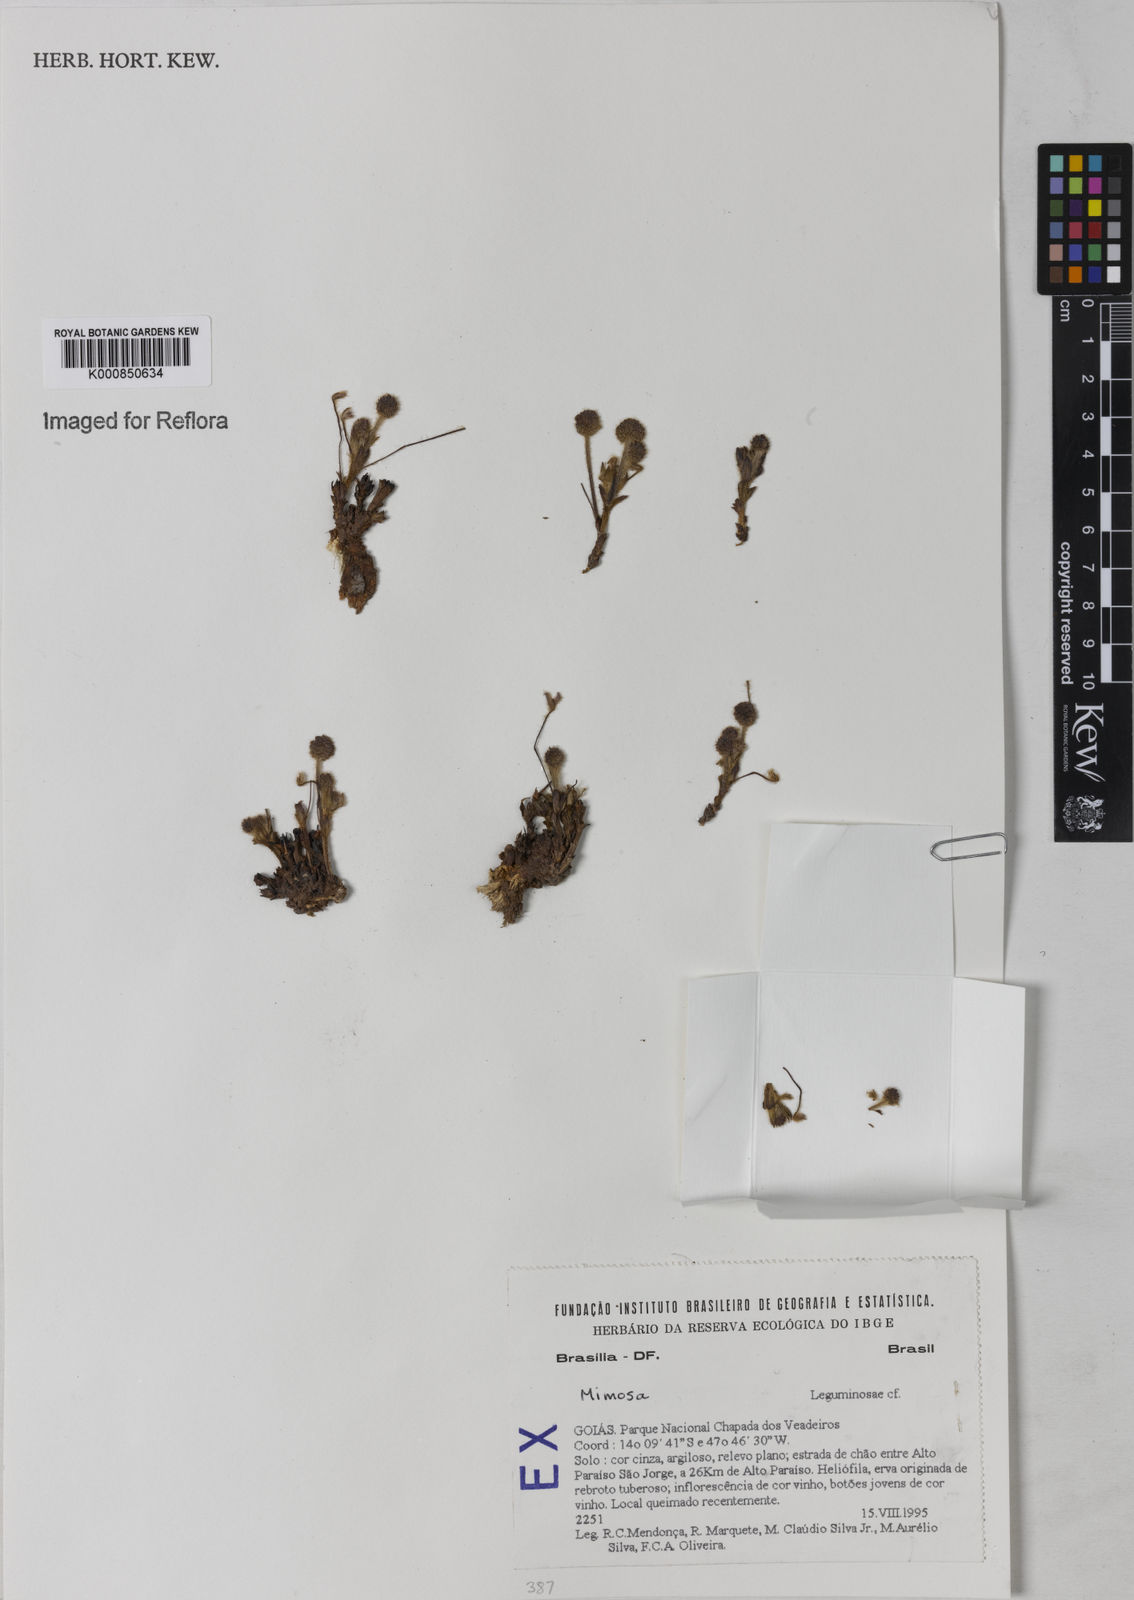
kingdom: Plantae
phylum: Tracheophyta
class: Magnoliopsida
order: Fabales
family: Fabaceae
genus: Mimosa
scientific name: Mimosa
